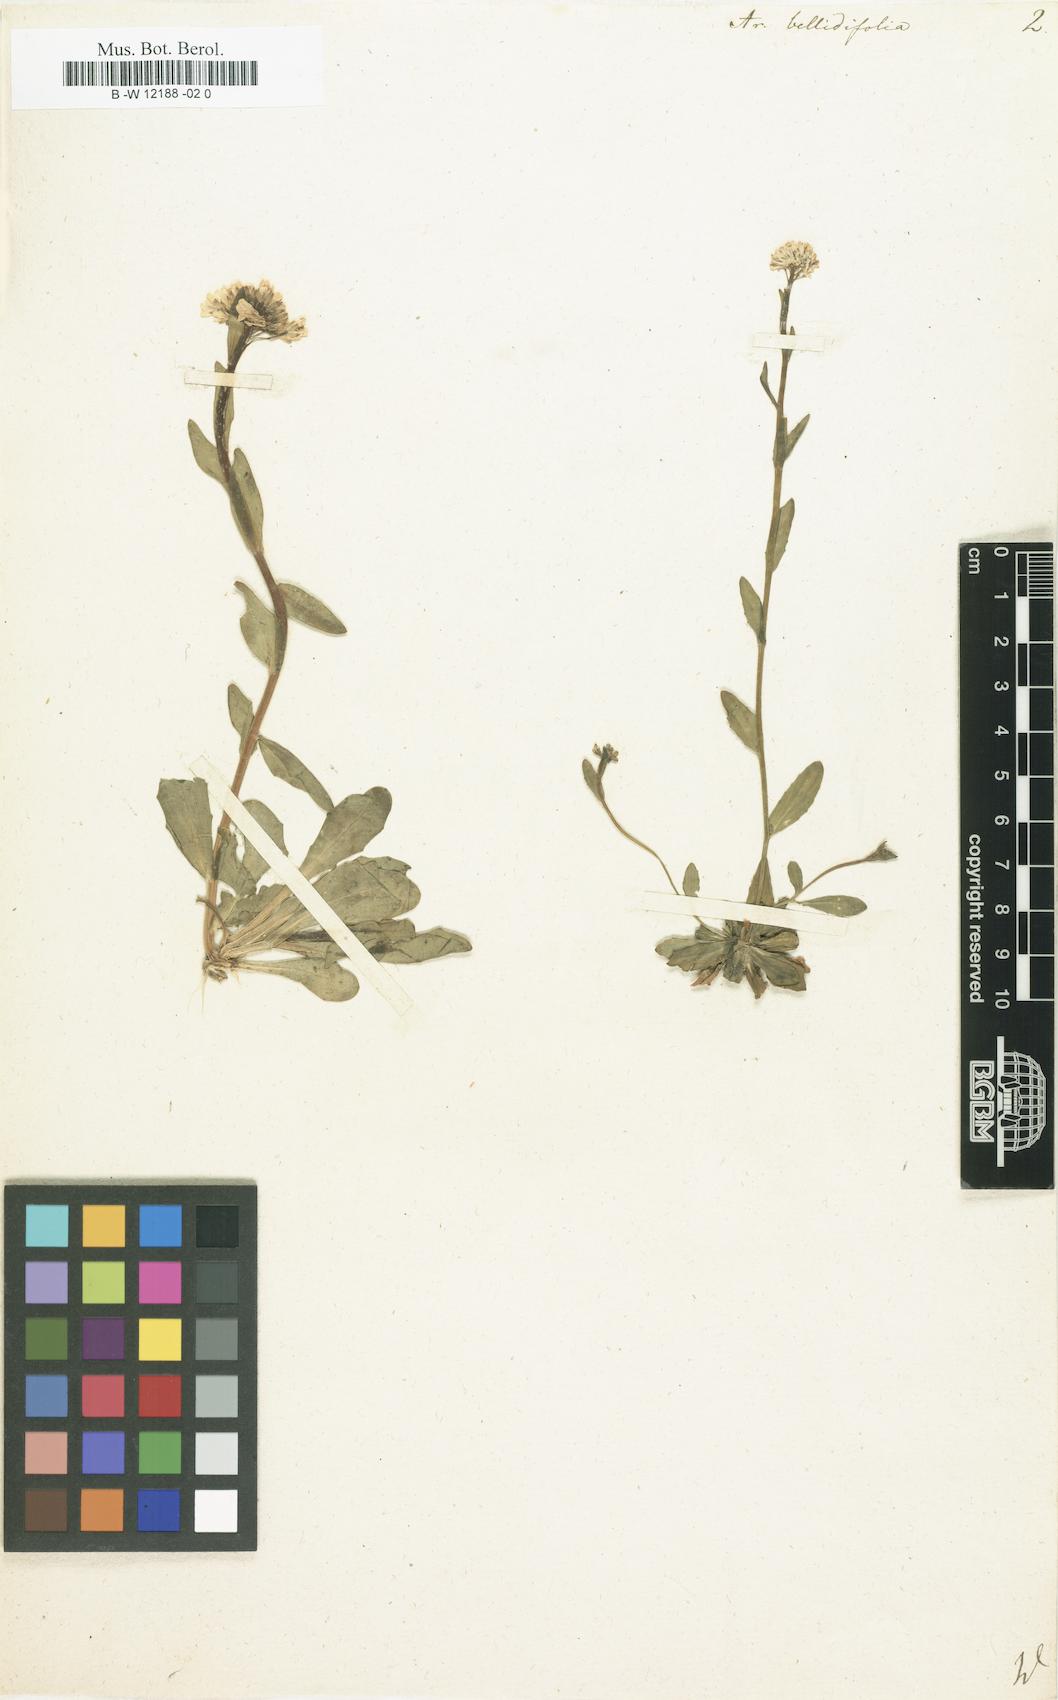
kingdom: Plantae
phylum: Tracheophyta
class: Magnoliopsida
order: Brassicales
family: Brassicaceae
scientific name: Brassicaceae
